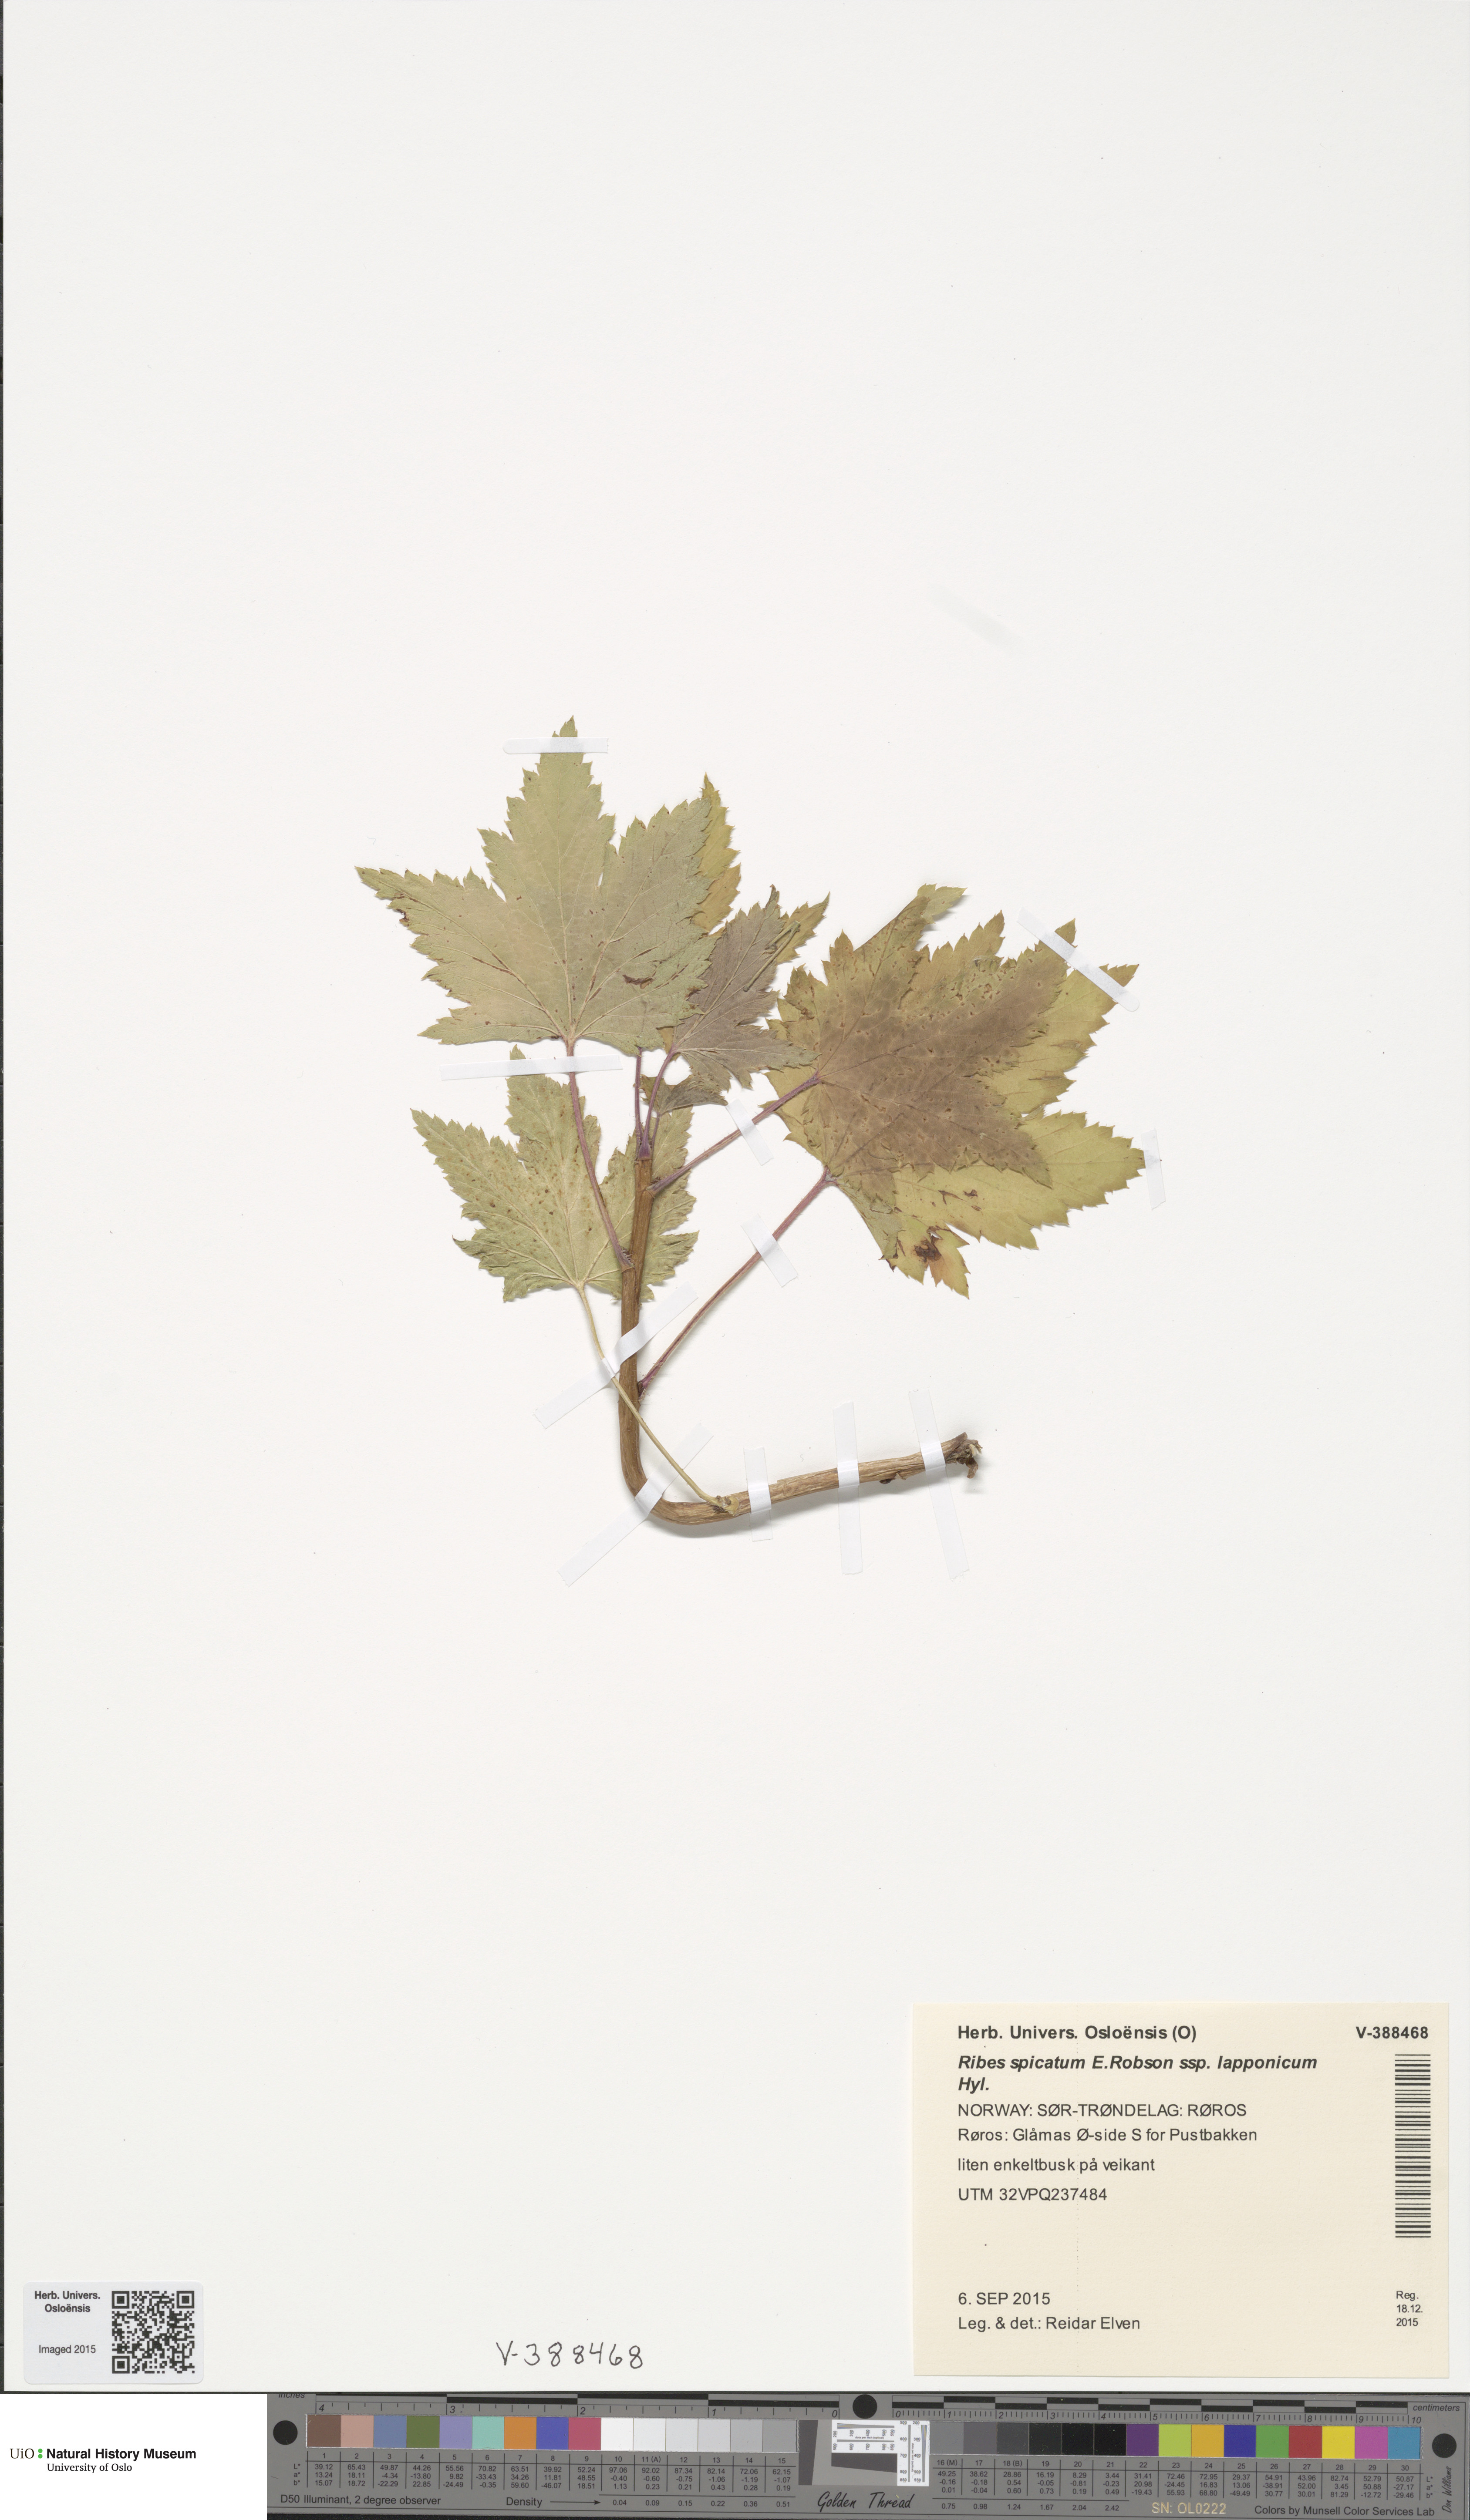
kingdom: Plantae
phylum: Tracheophyta
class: Magnoliopsida
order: Saxifragales
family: Grossulariaceae
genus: Ribes
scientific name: Ribes spicatum
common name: Downy currant
